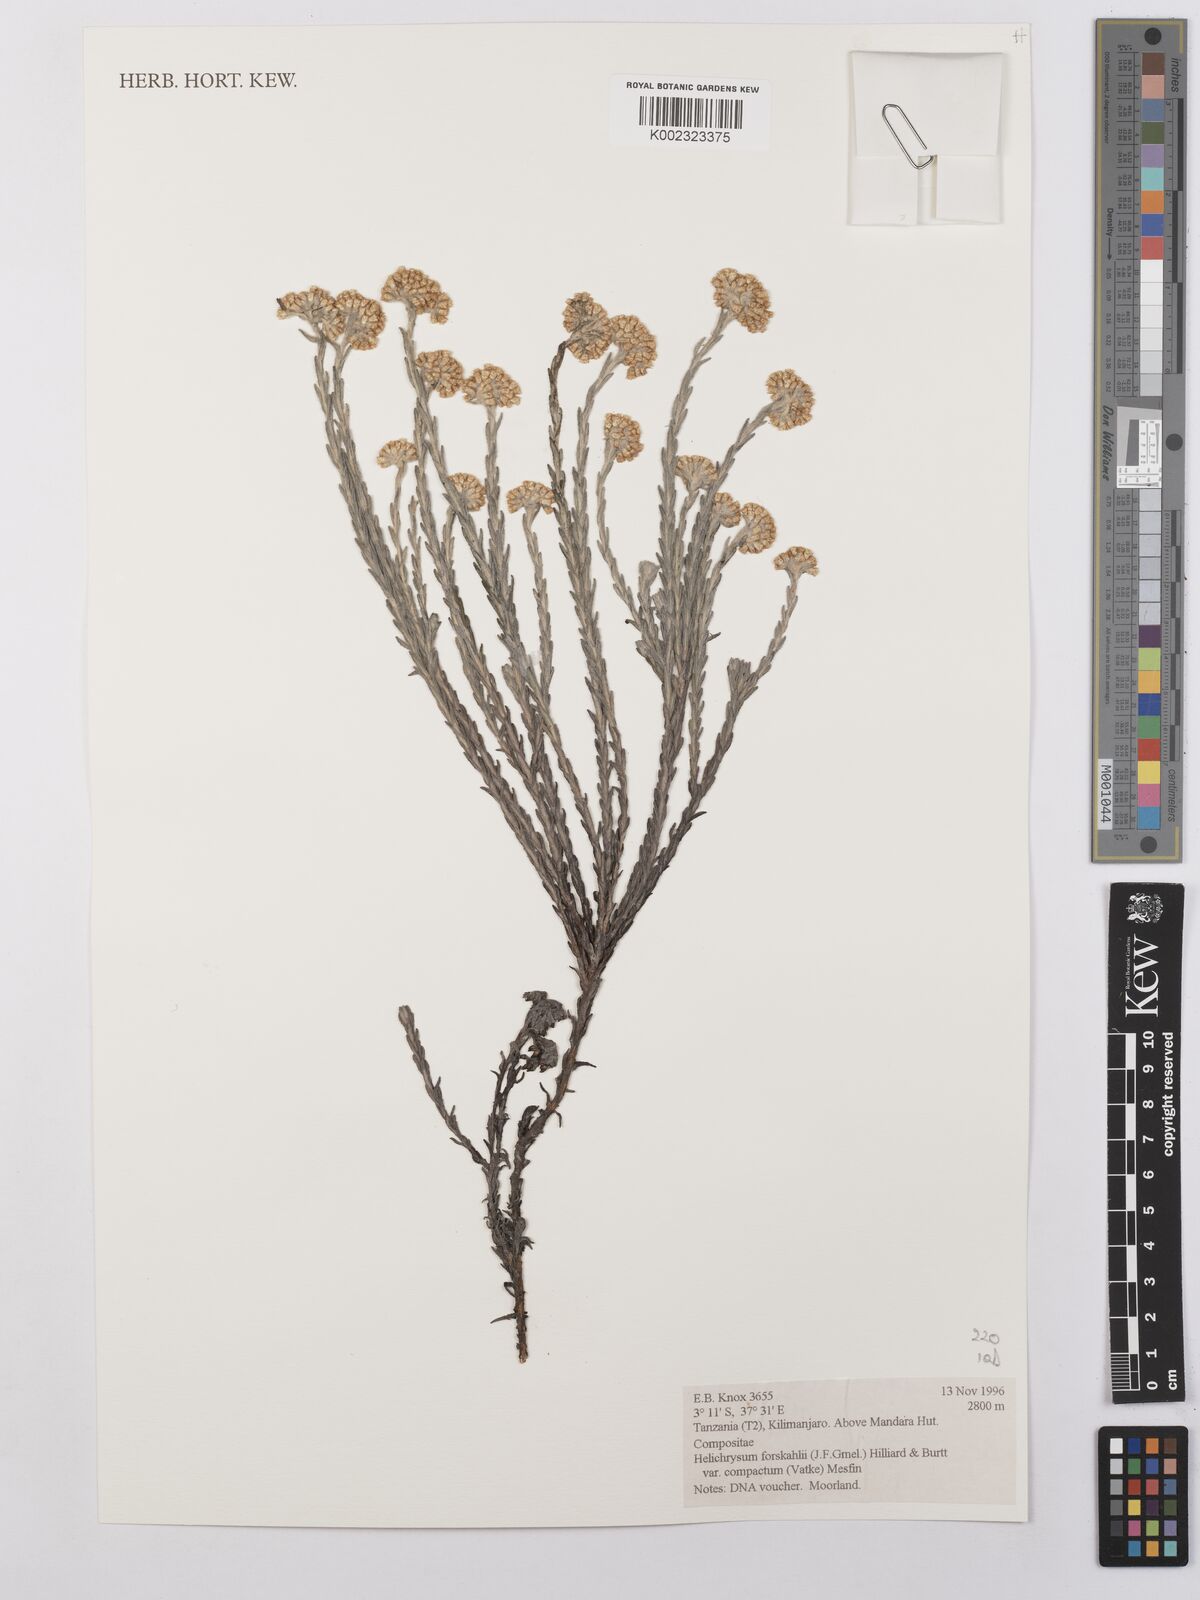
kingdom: Plantae
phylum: Tracheophyta
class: Magnoliopsida
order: Asterales
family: Asteraceae
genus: Helichrysum
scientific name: Helichrysum forskahlii
